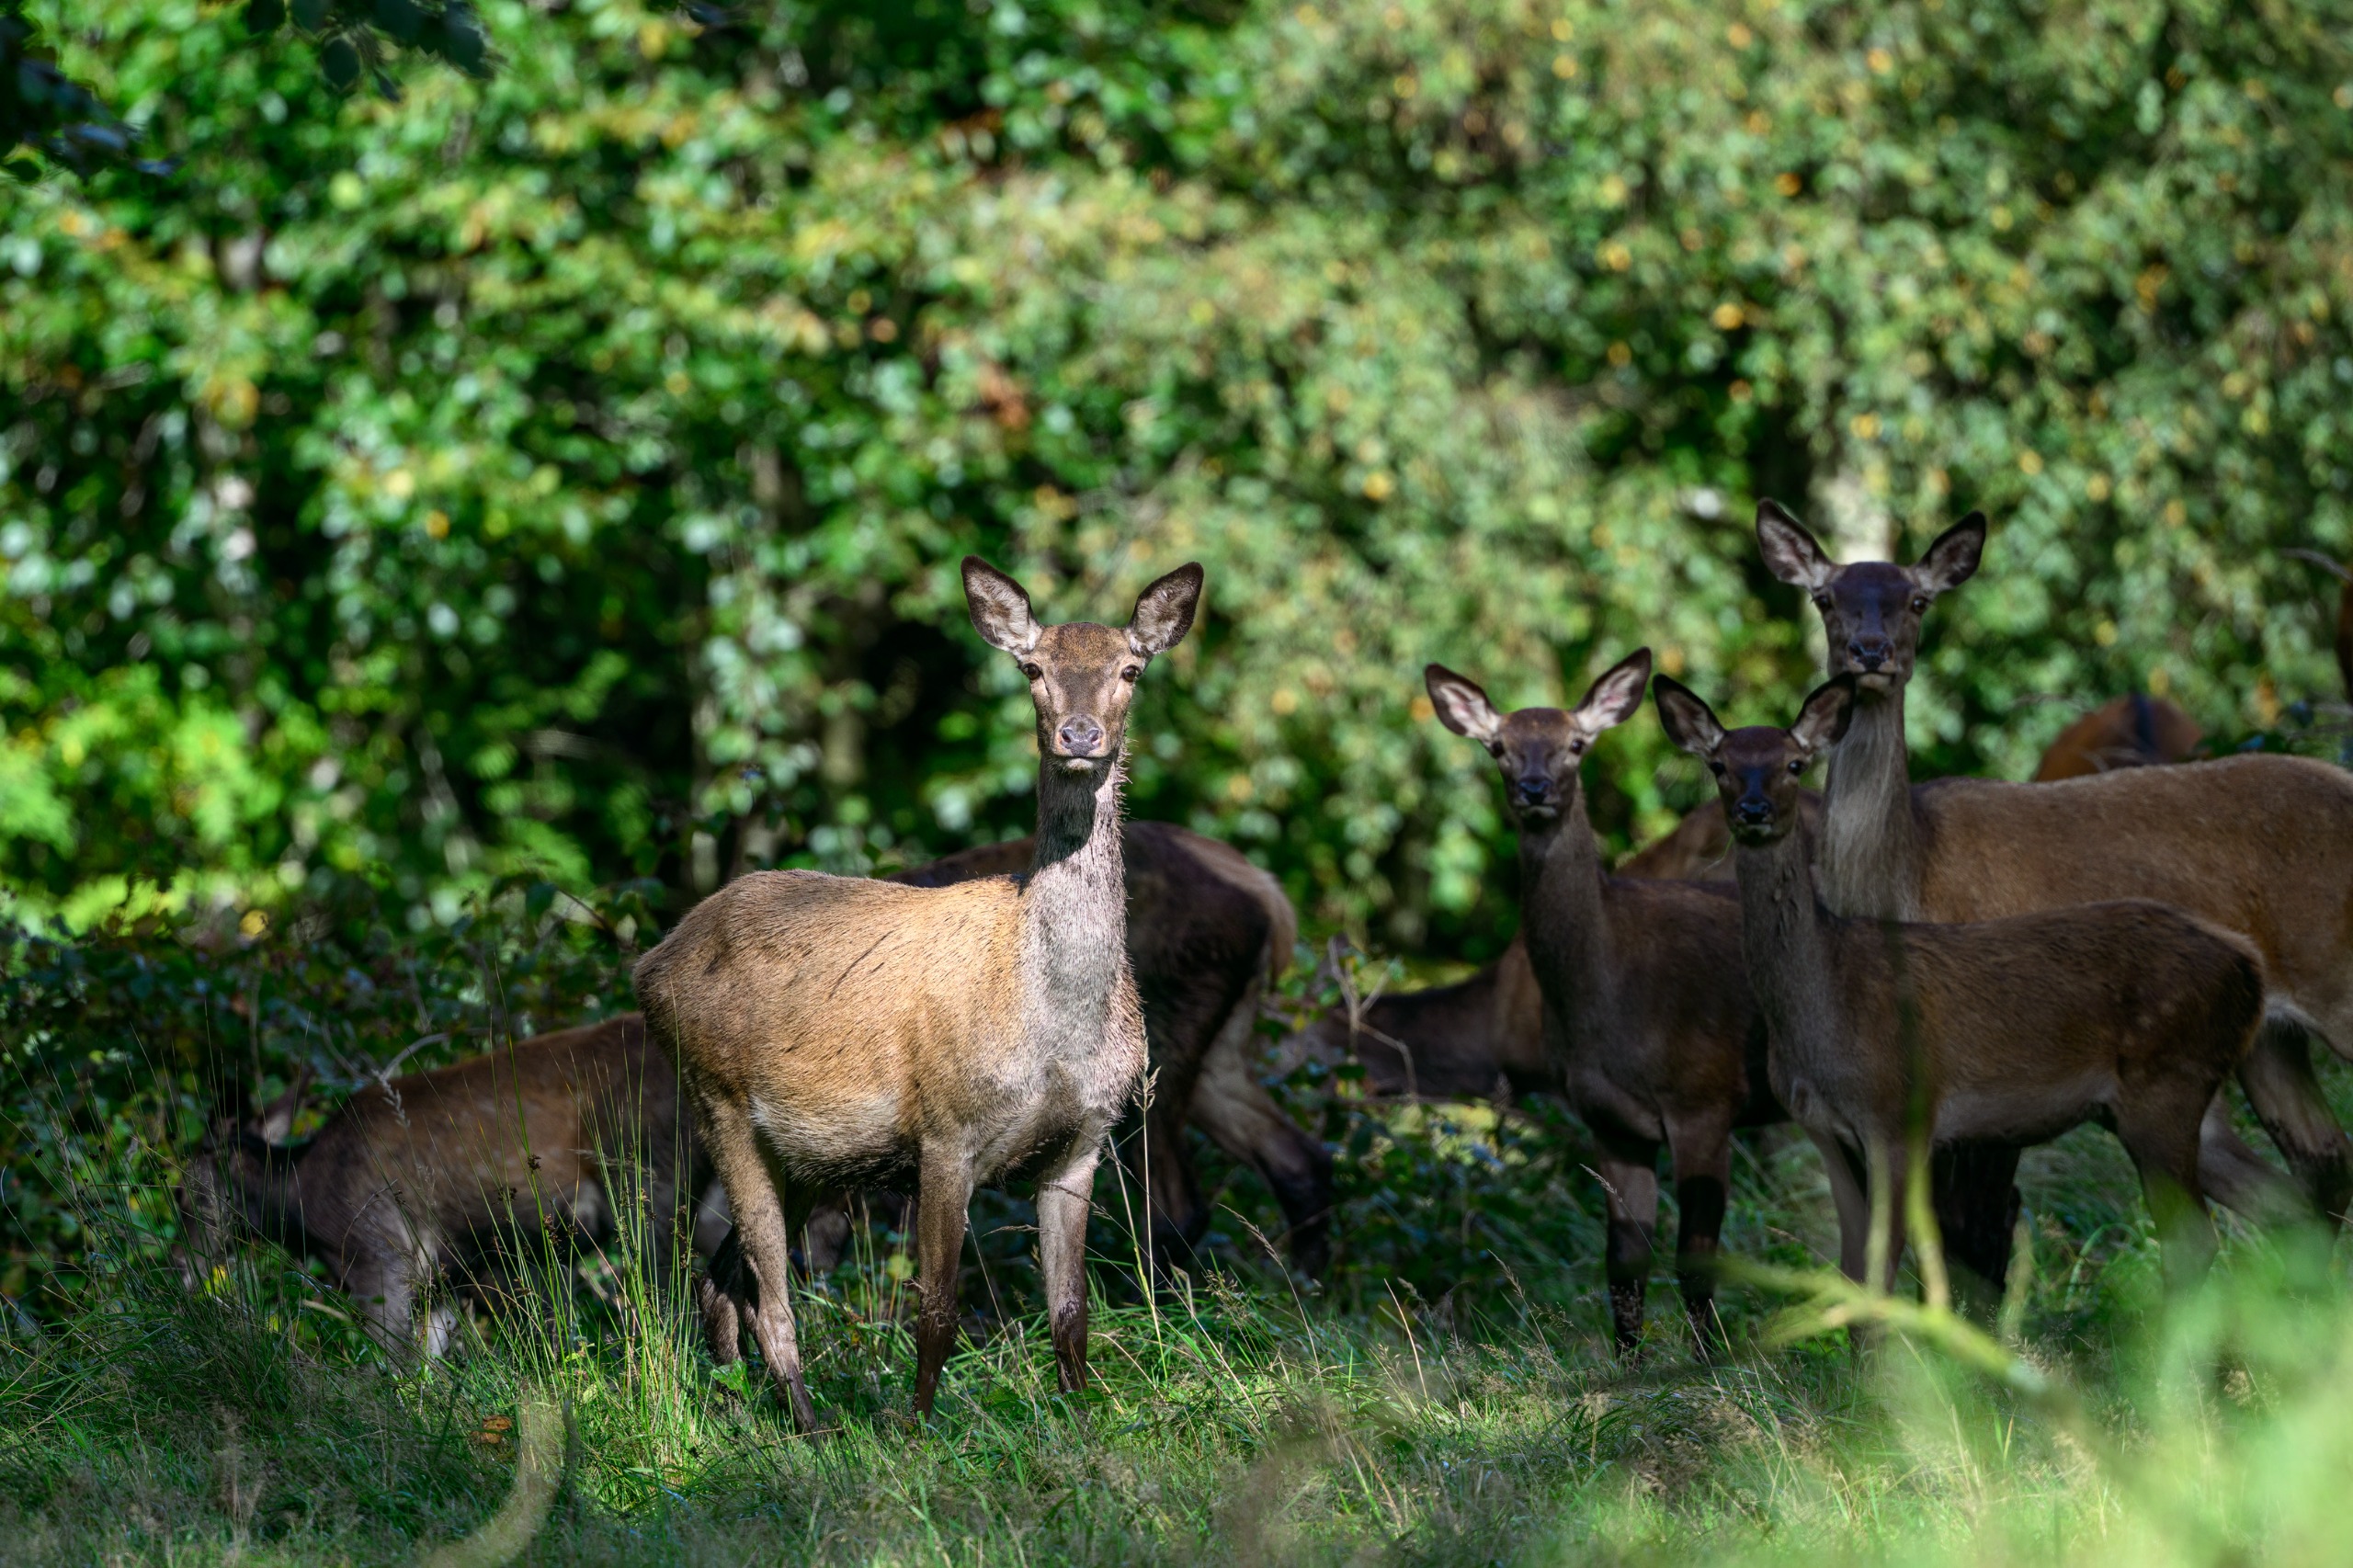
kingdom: Animalia
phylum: Chordata
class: Mammalia
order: Artiodactyla
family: Cervidae
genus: Cervus
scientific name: Cervus elaphus
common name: Krondyr
